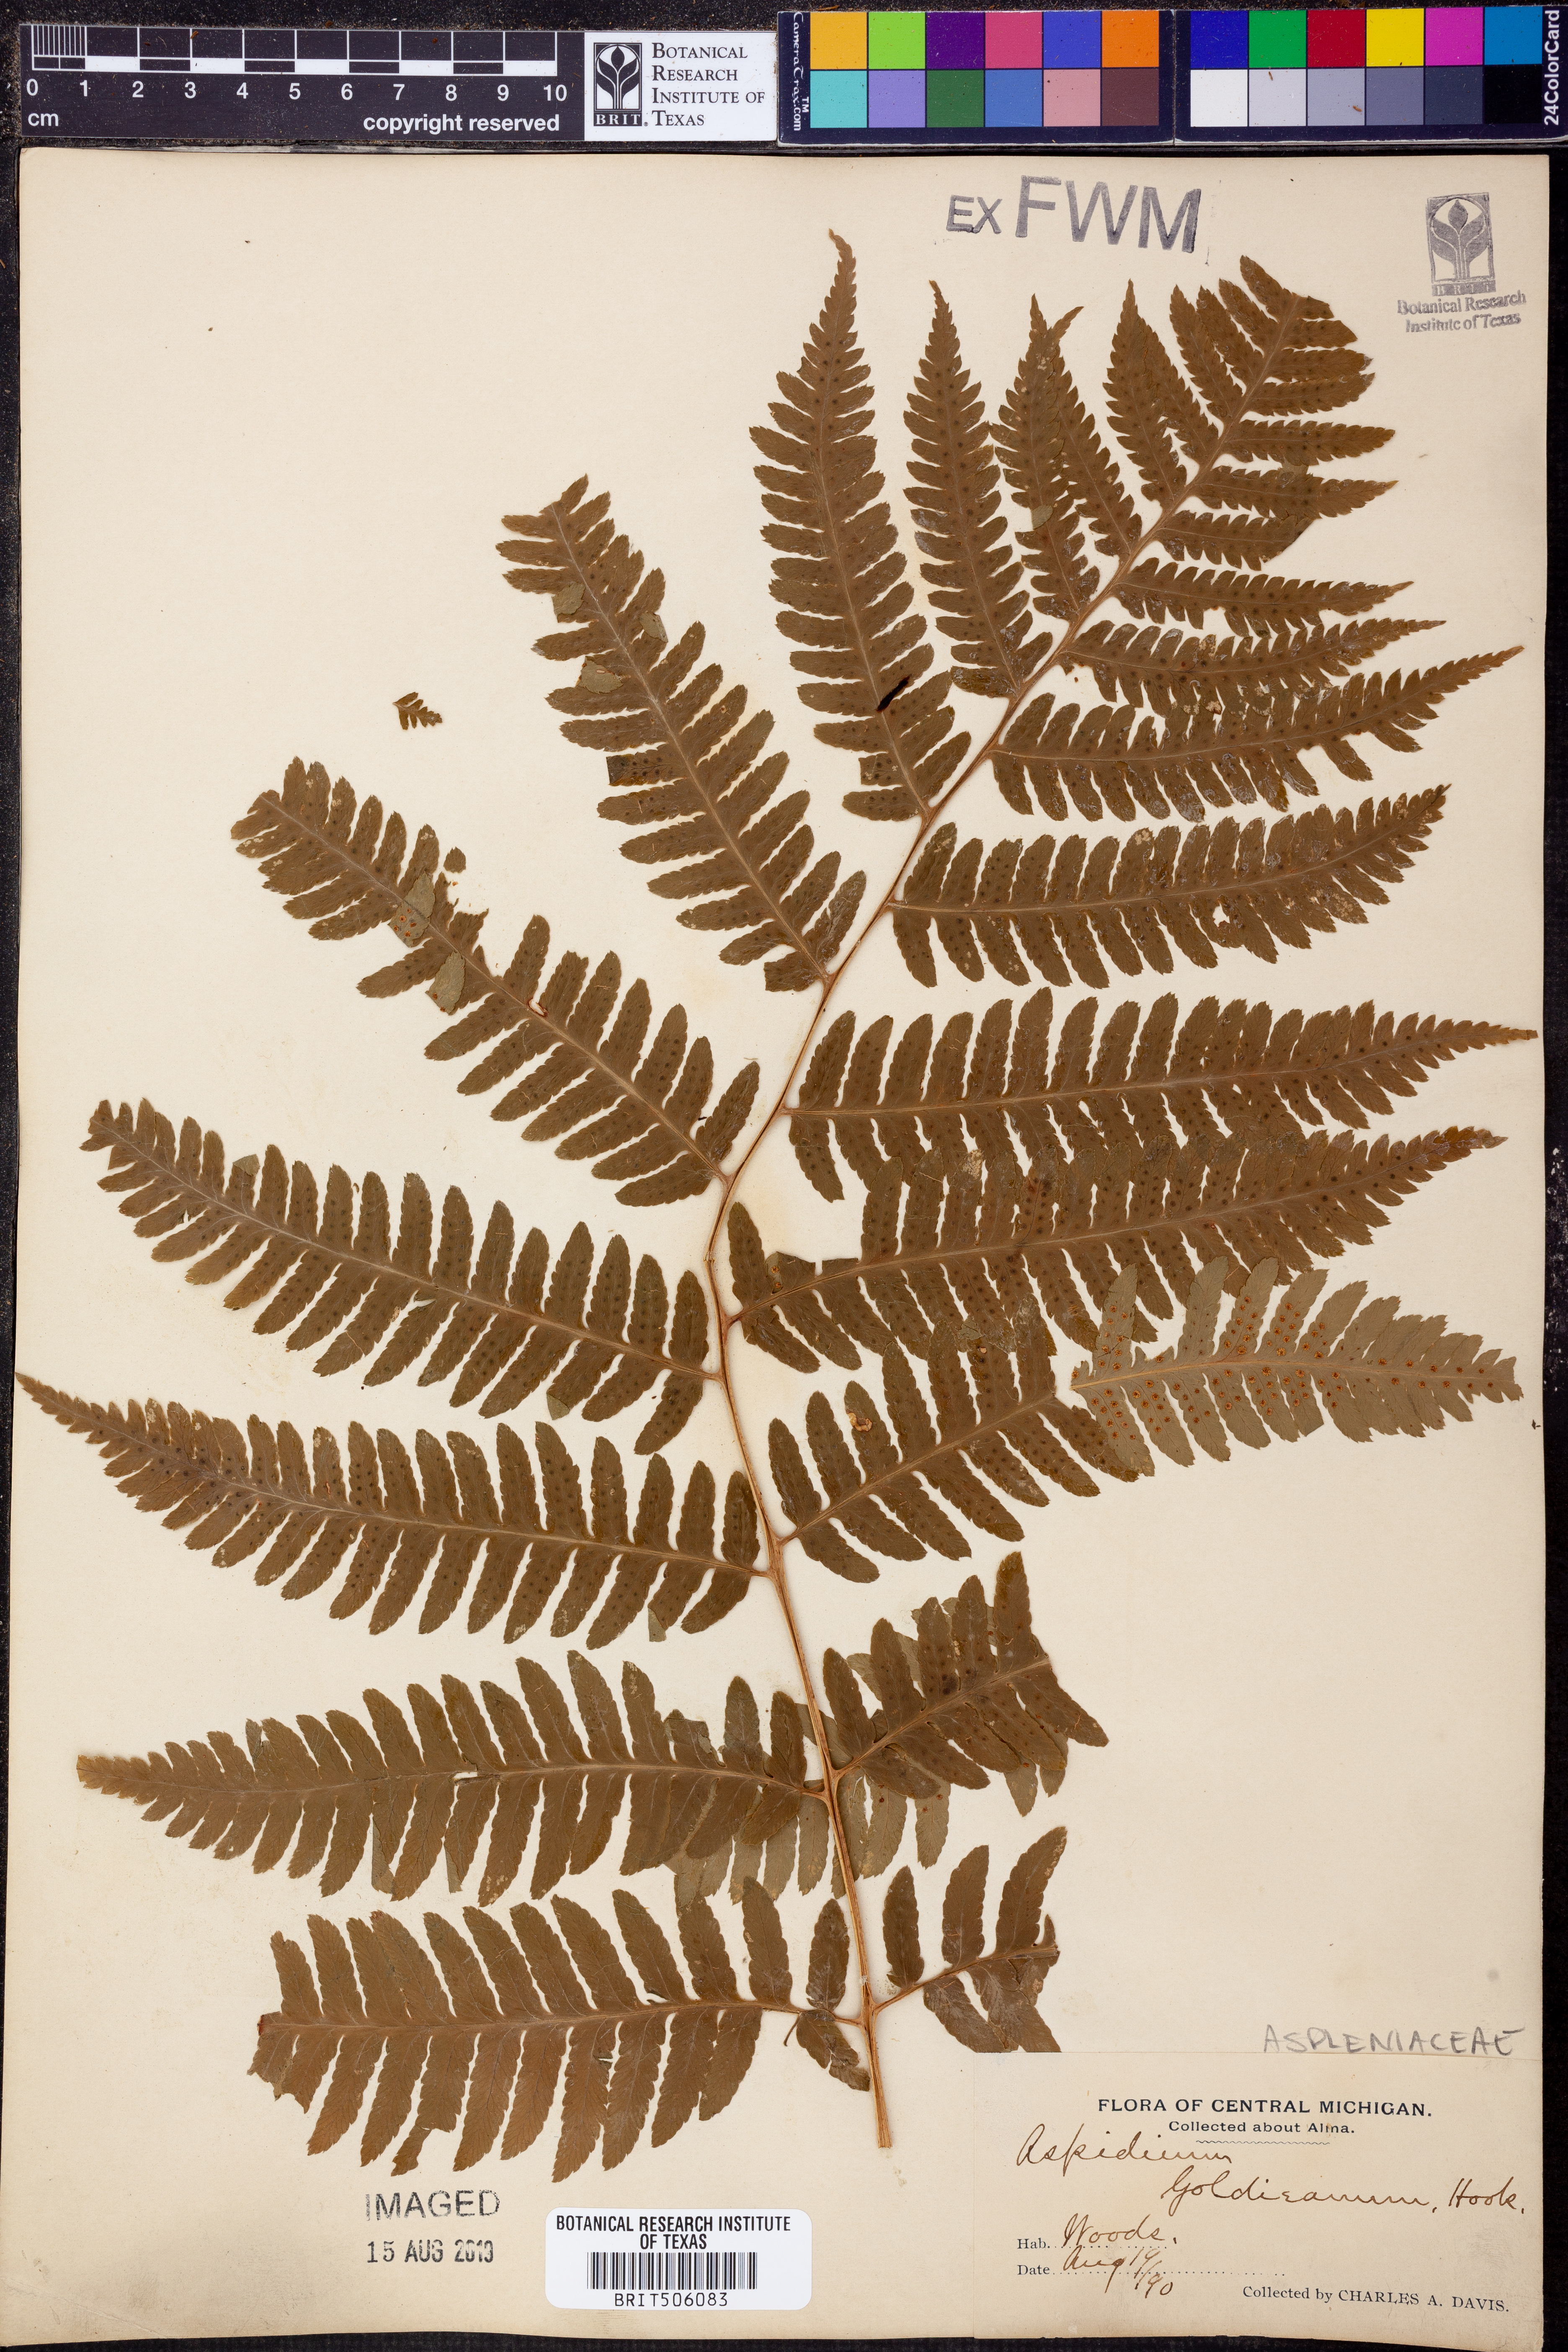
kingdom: Plantae
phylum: Tracheophyta
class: Polypodiopsida
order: Polypodiales
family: Tectariaceae
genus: Tectaria
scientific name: Tectaria Aspidium goldianum
